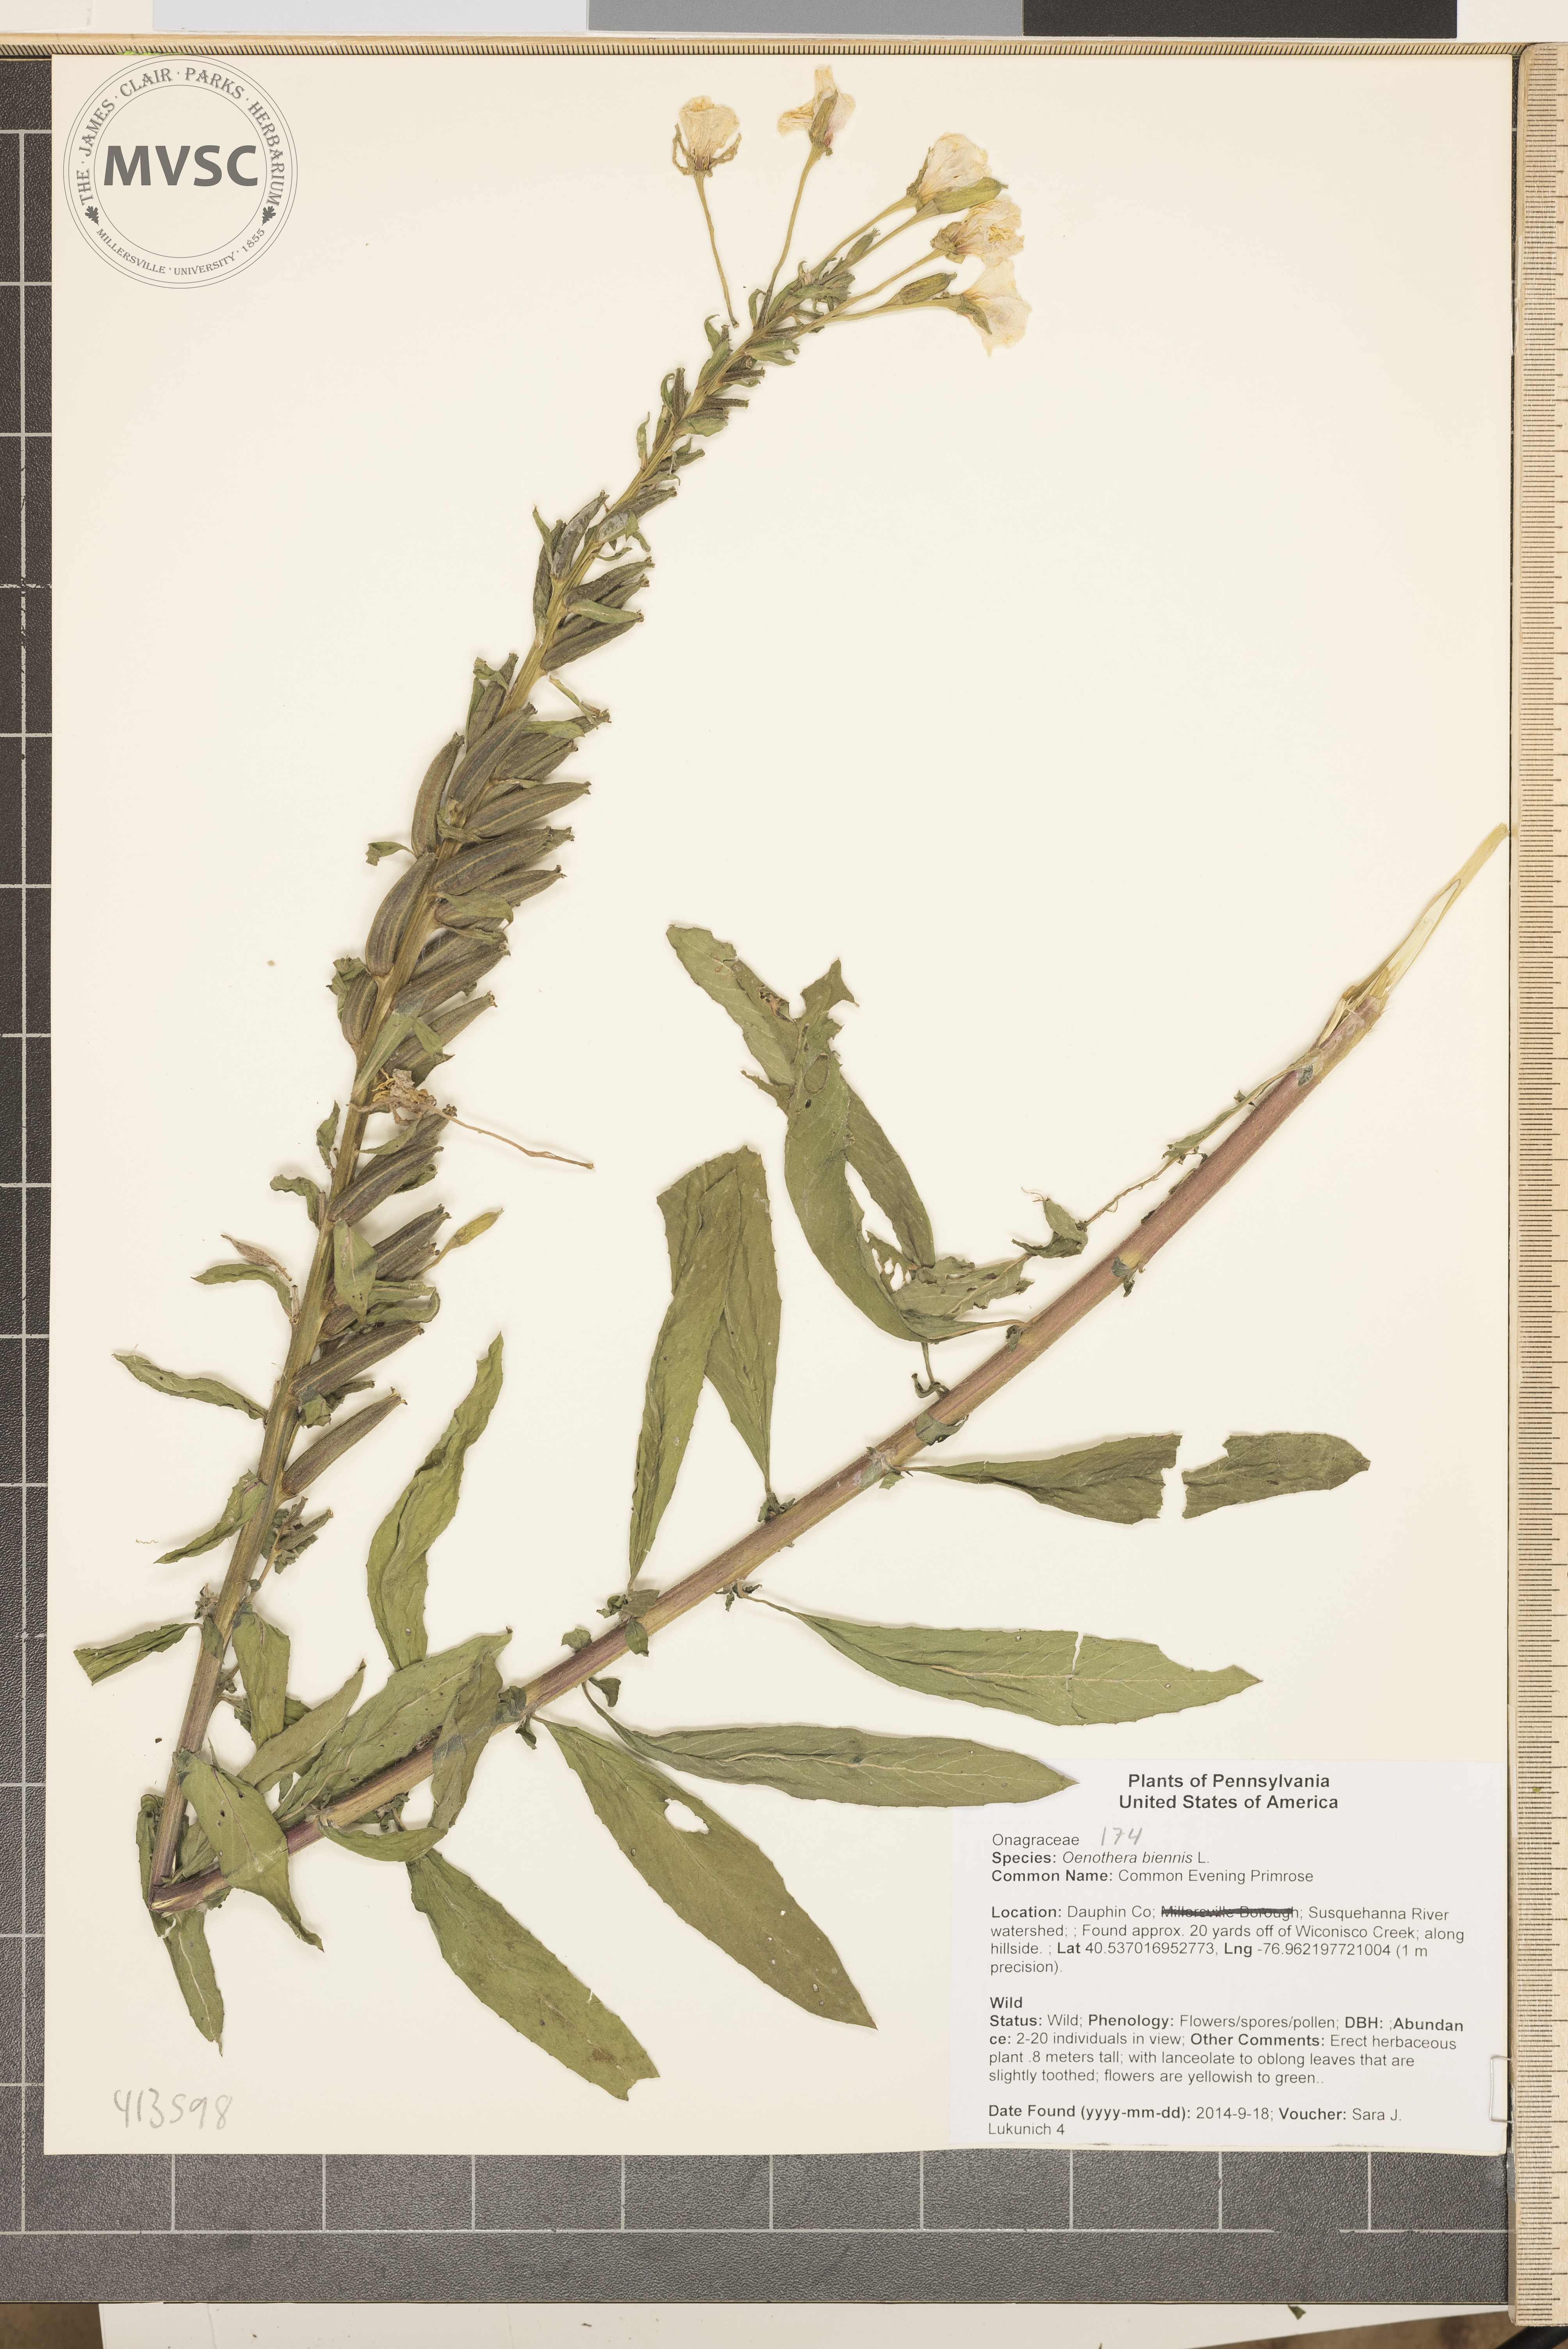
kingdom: Plantae
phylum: Tracheophyta
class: Magnoliopsida
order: Myrtales
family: Onagraceae
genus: Oenothera
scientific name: Oenothera biennis
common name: Common Evening Primrose
